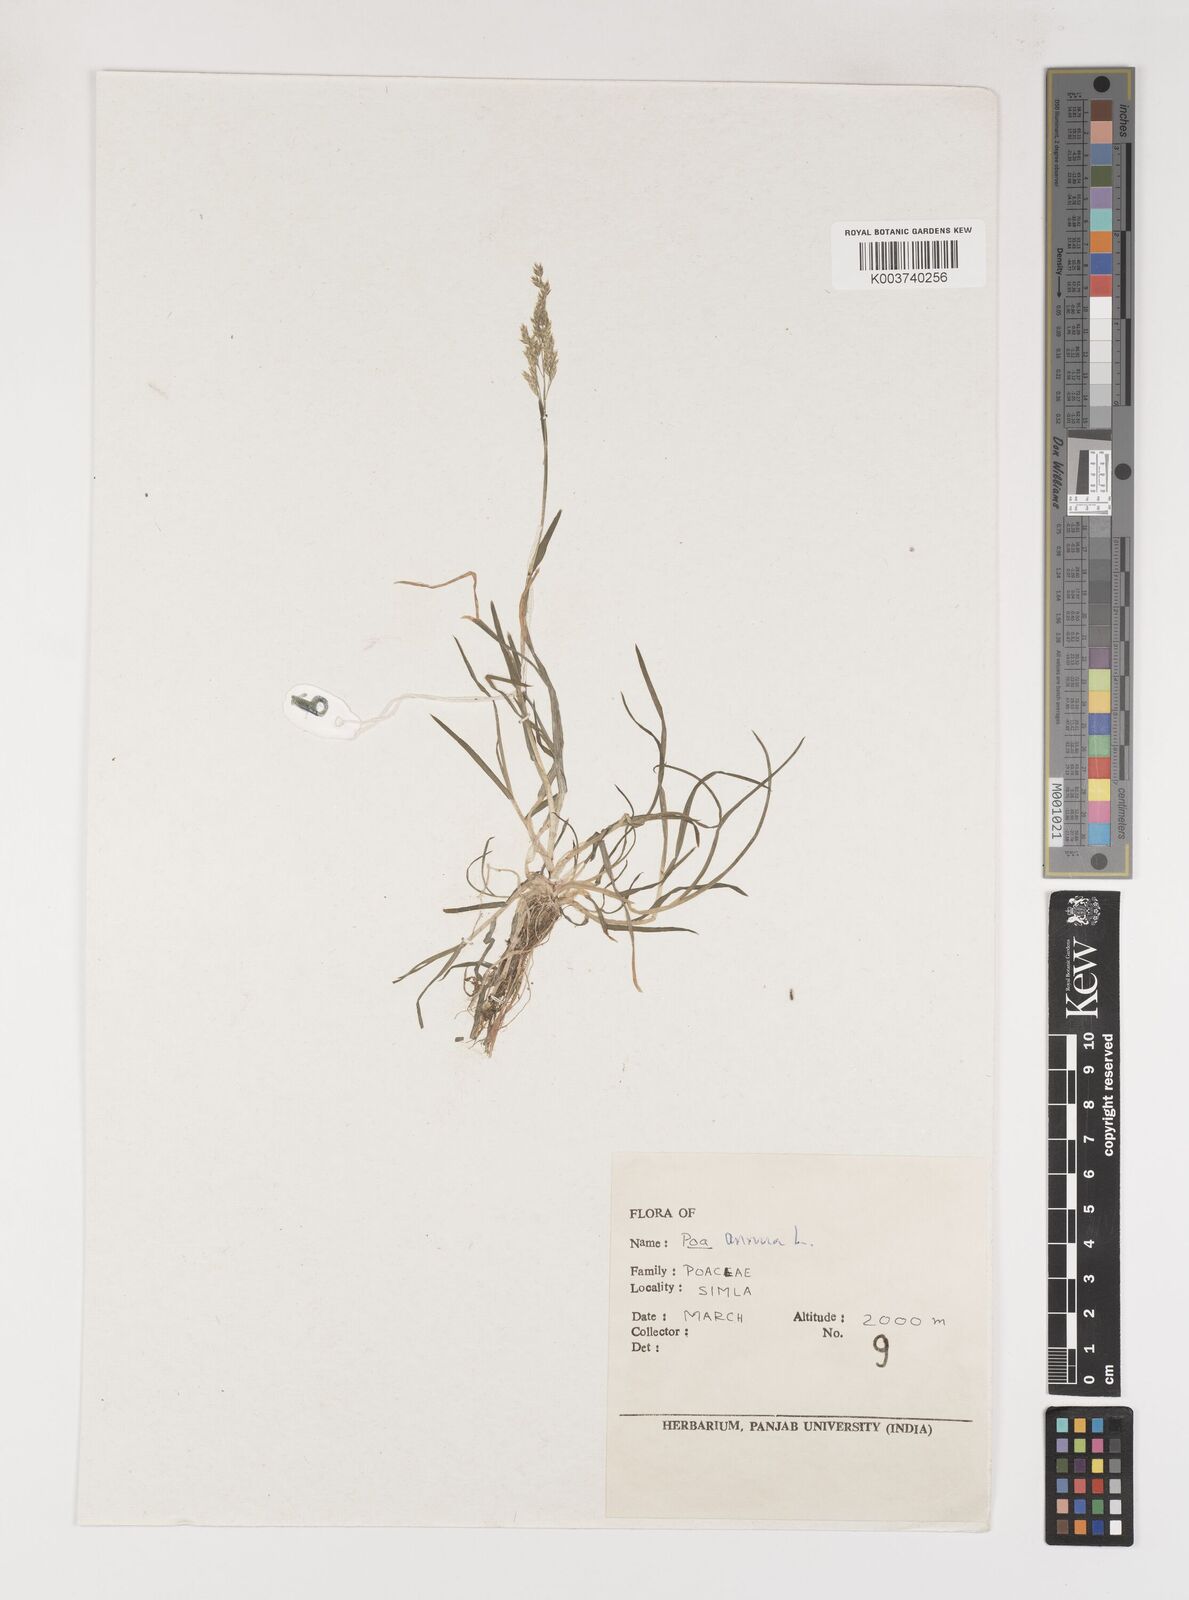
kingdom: Plantae
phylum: Tracheophyta
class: Liliopsida
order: Poales
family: Poaceae
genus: Poa
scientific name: Poa annua
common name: Annual bluegrass
